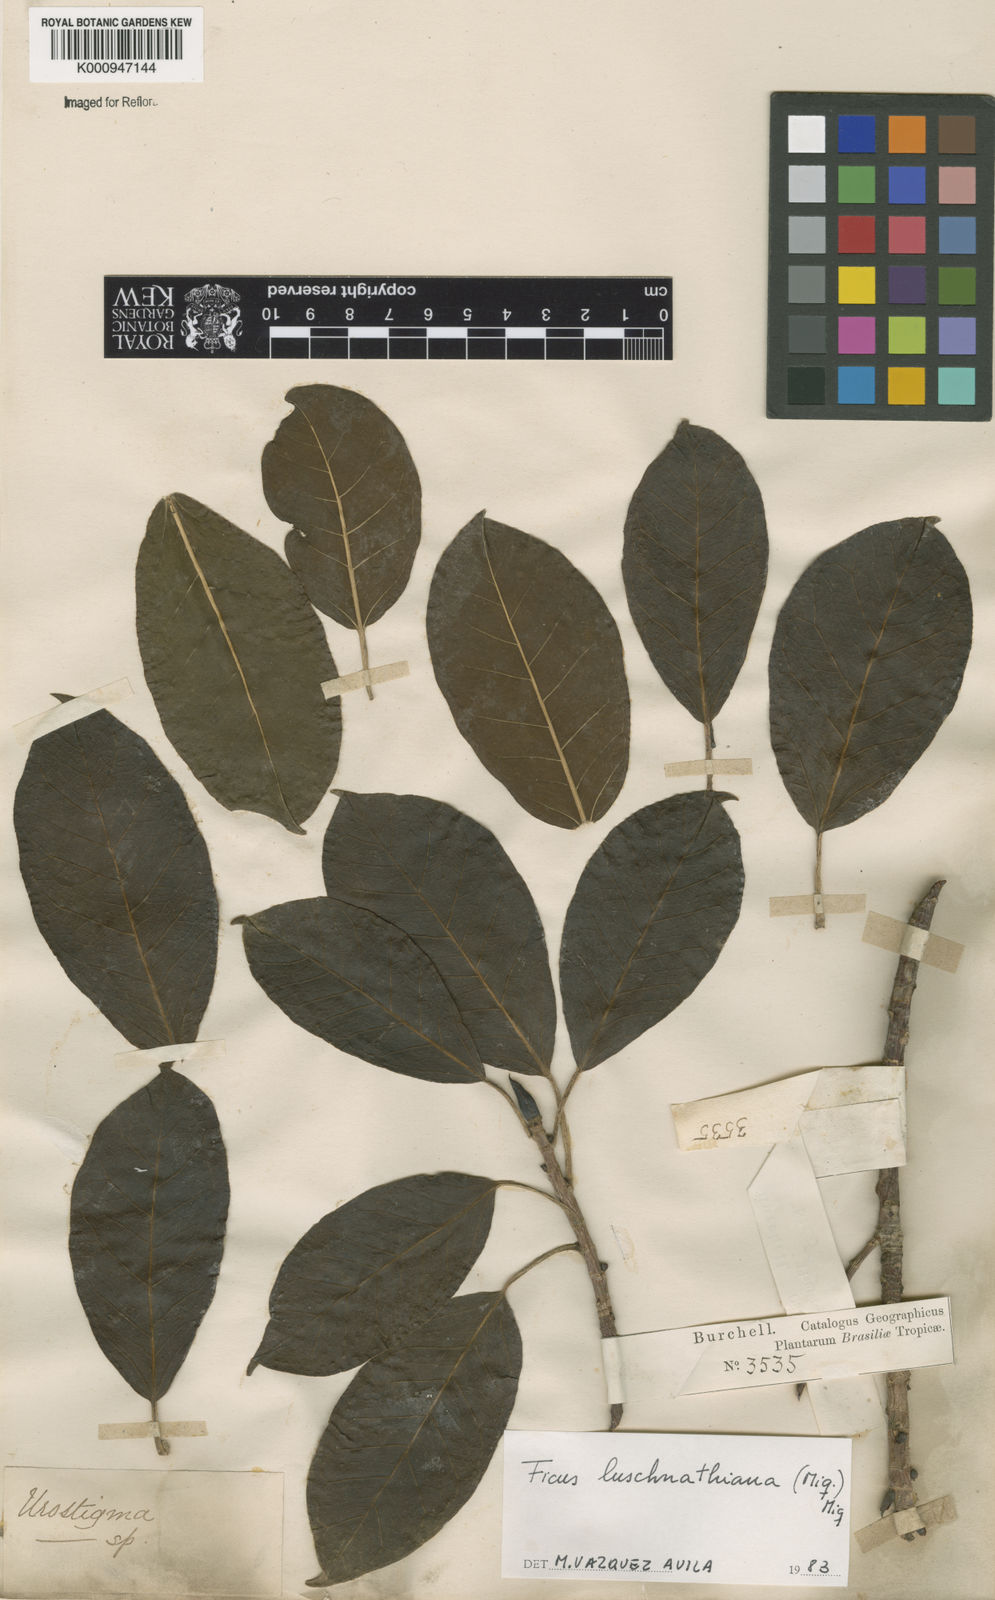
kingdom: Plantae
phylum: Tracheophyta
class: Magnoliopsida
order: Rosales
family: Moraceae
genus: Ficus
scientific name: Ficus luschnathiana
